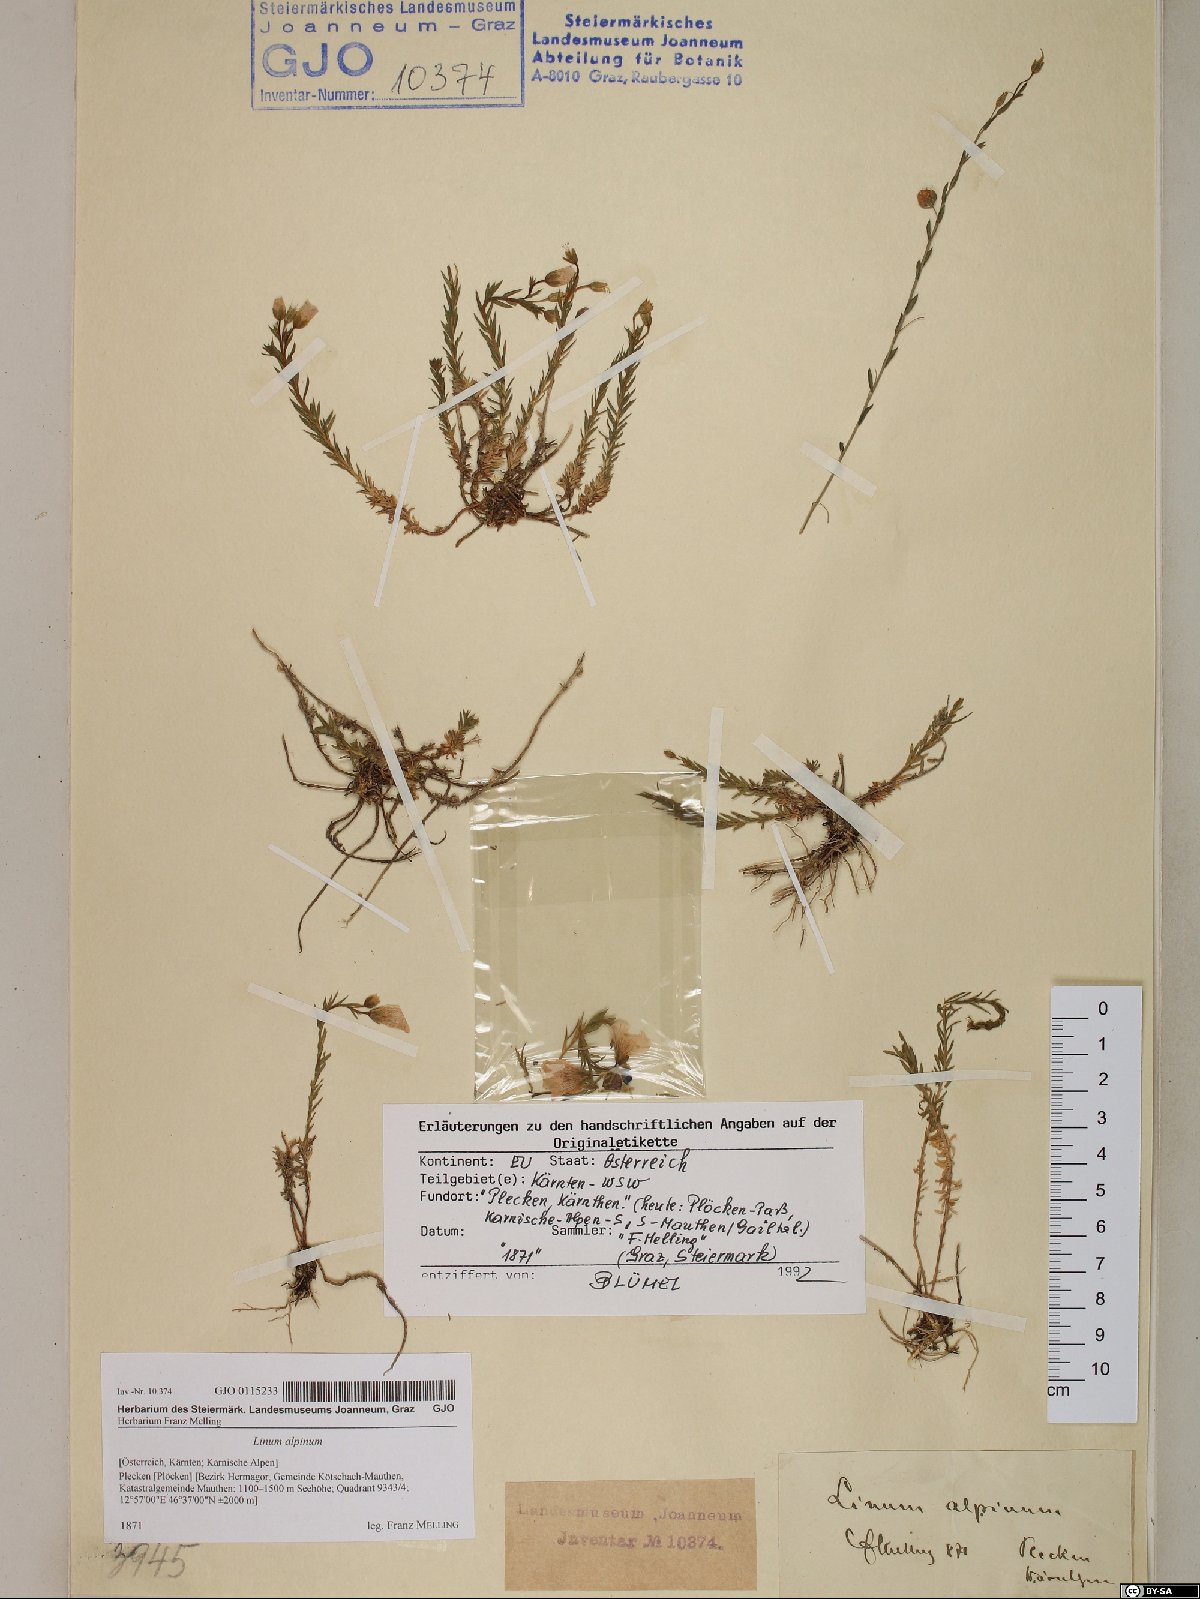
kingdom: Plantae
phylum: Tracheophyta
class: Magnoliopsida
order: Malpighiales
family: Linaceae
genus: Linum
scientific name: Linum alpinum
